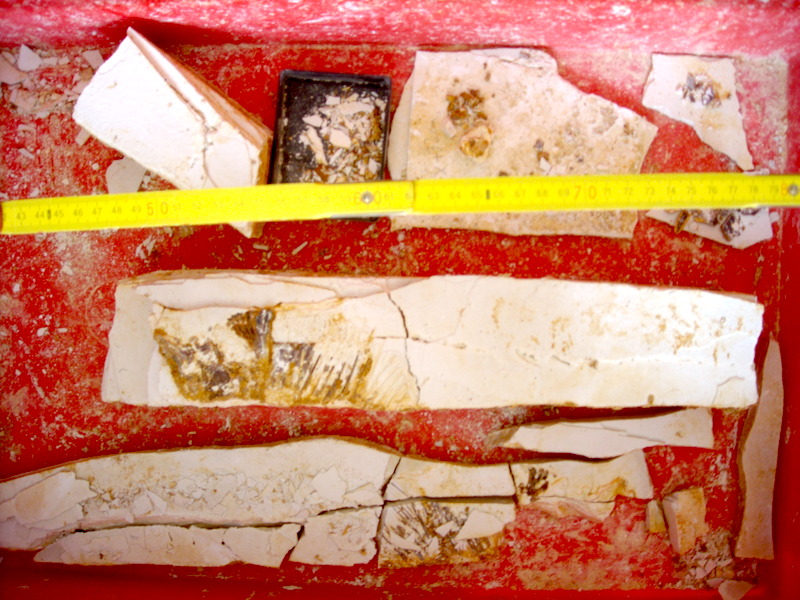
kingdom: Animalia
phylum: Chordata
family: Pycnodontidae
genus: Proscinetes
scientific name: Proscinetes elegans
